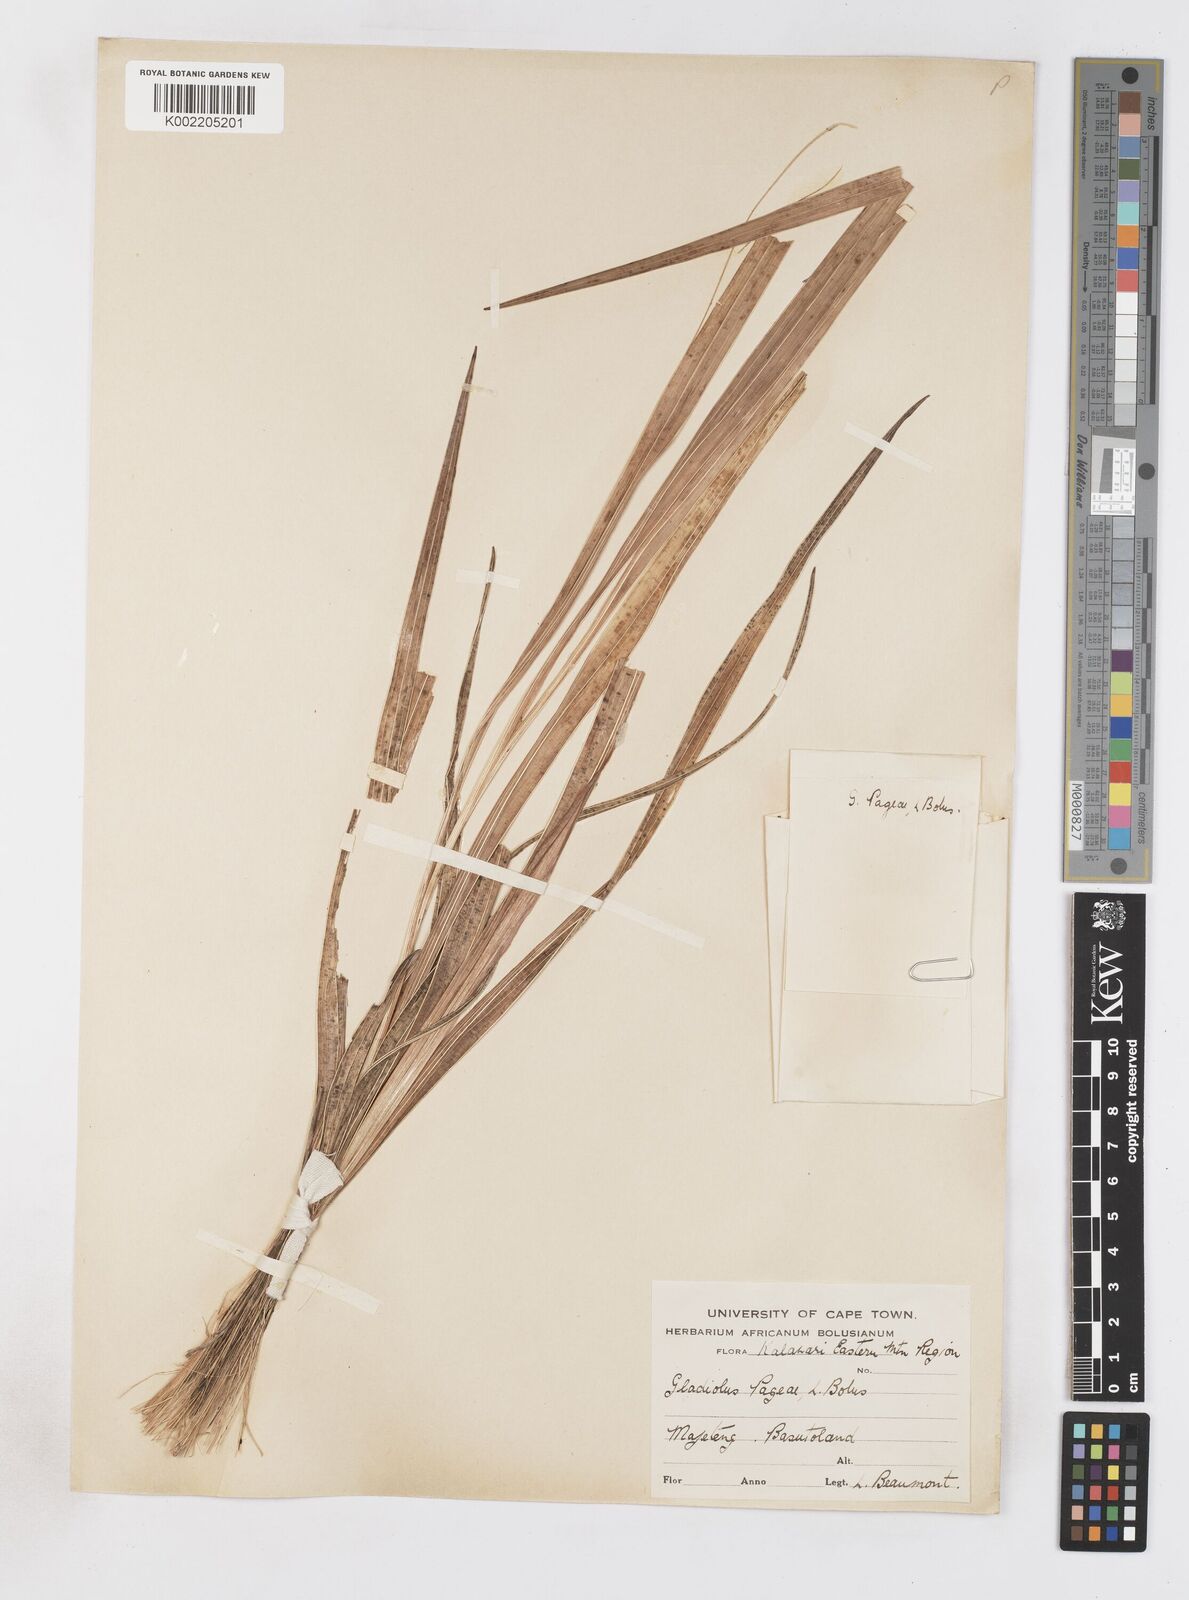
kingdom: Plantae
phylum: Tracheophyta
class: Liliopsida
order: Asparagales
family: Iridaceae
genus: Gladiolus
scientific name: Gladiolus dalenii
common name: Cornflag
